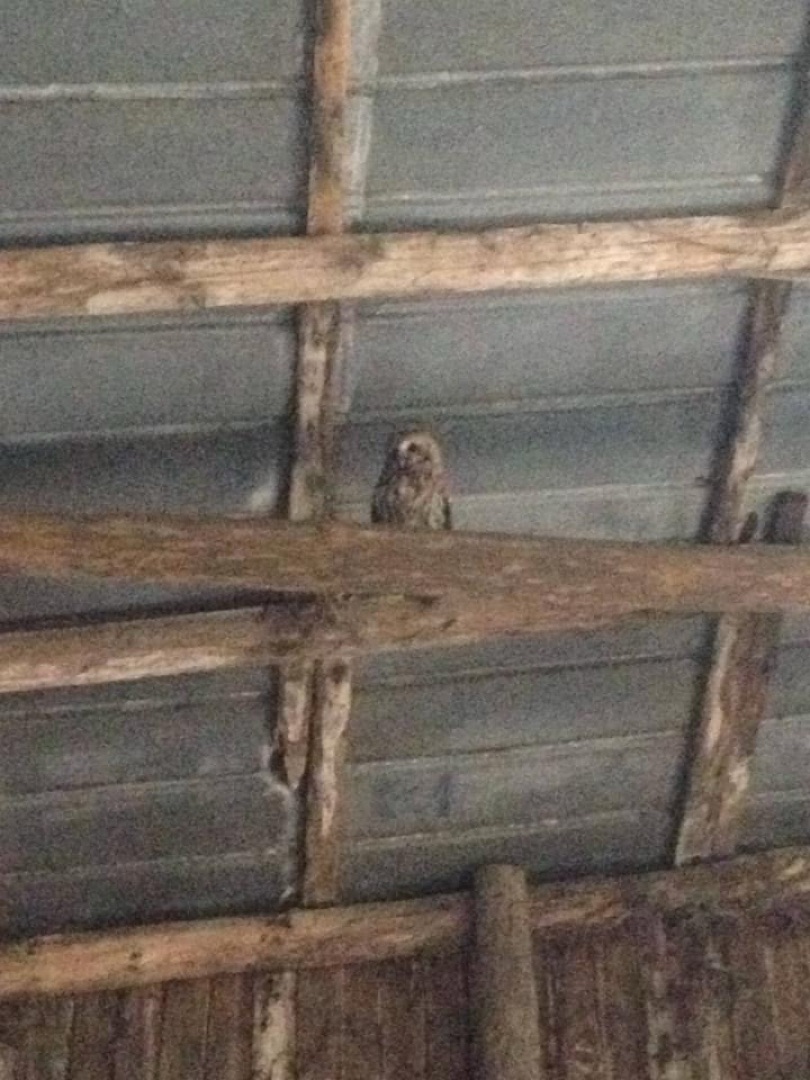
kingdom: Animalia
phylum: Chordata
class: Aves
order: Strigiformes
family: Strigidae
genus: Strix
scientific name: Strix aluco
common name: Natugle
